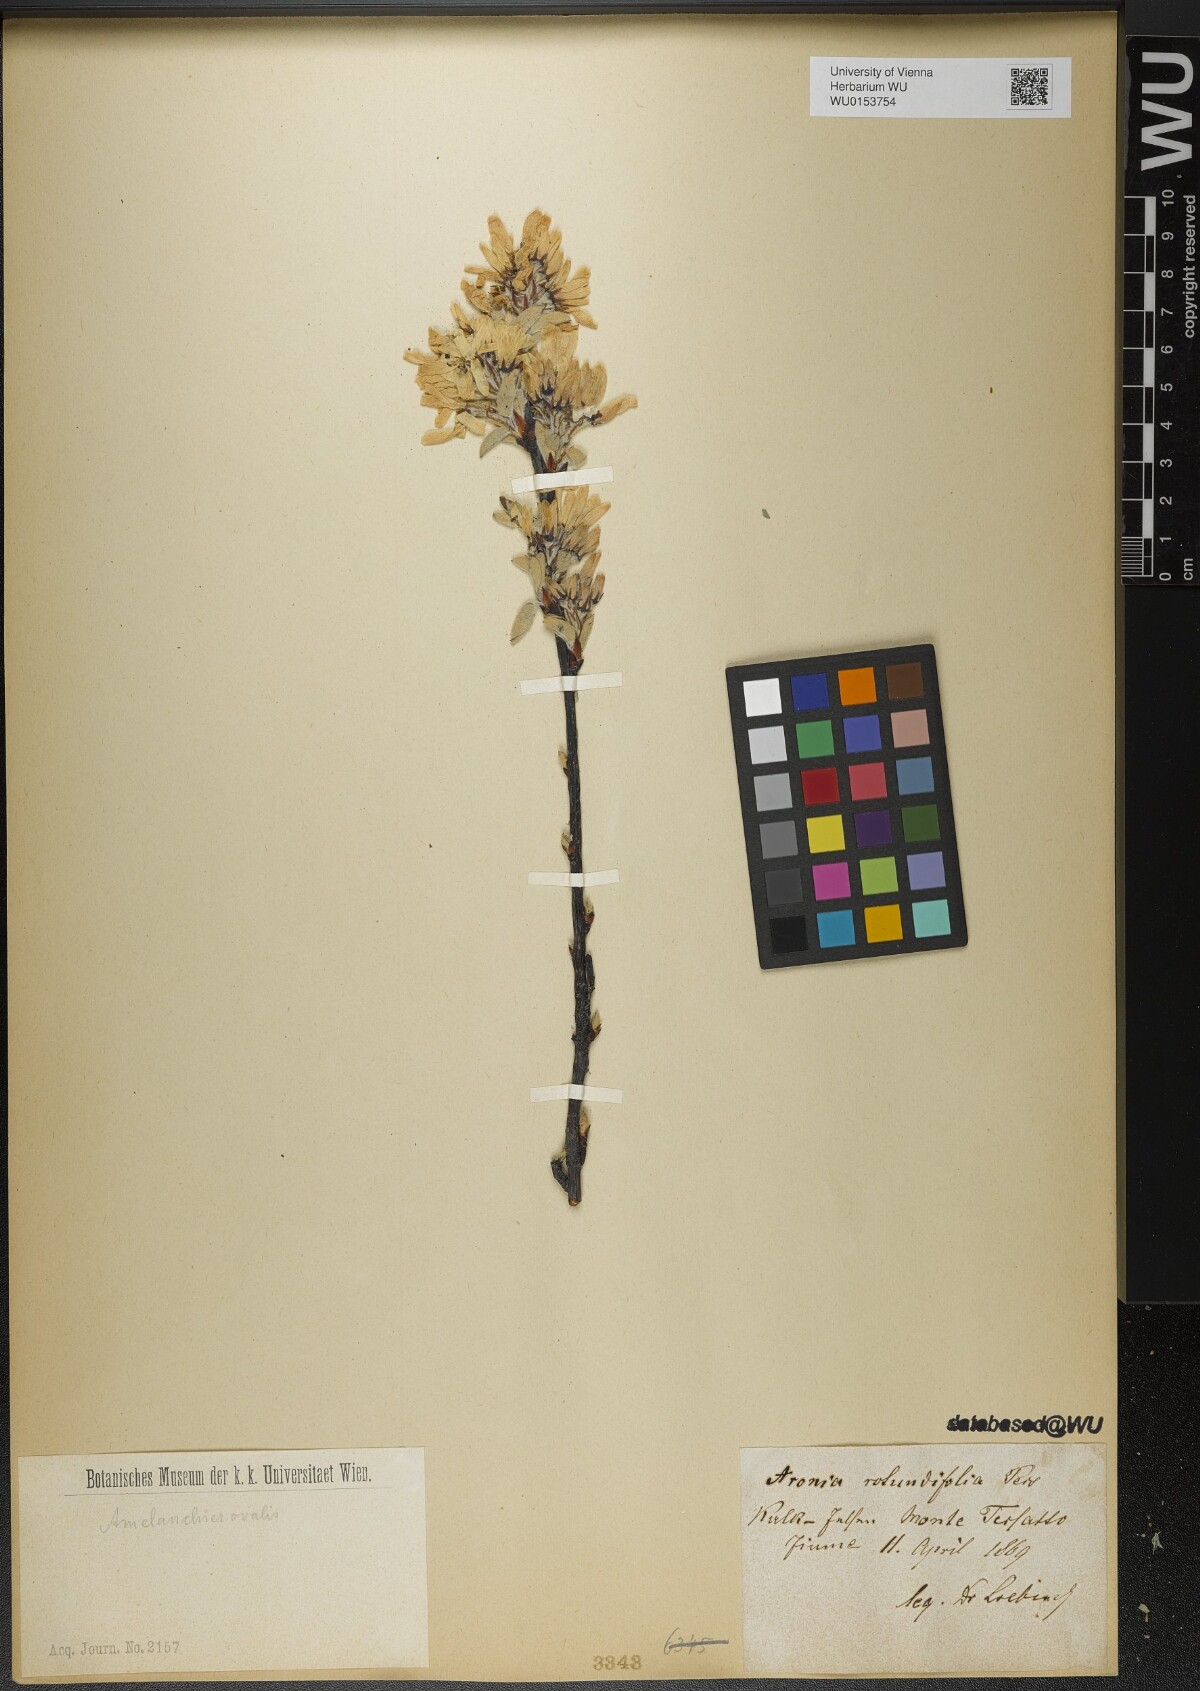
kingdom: Plantae
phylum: Tracheophyta
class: Magnoliopsida
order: Rosales
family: Rosaceae
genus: Amelanchier
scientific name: Amelanchier ovalis
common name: Serviceberry
